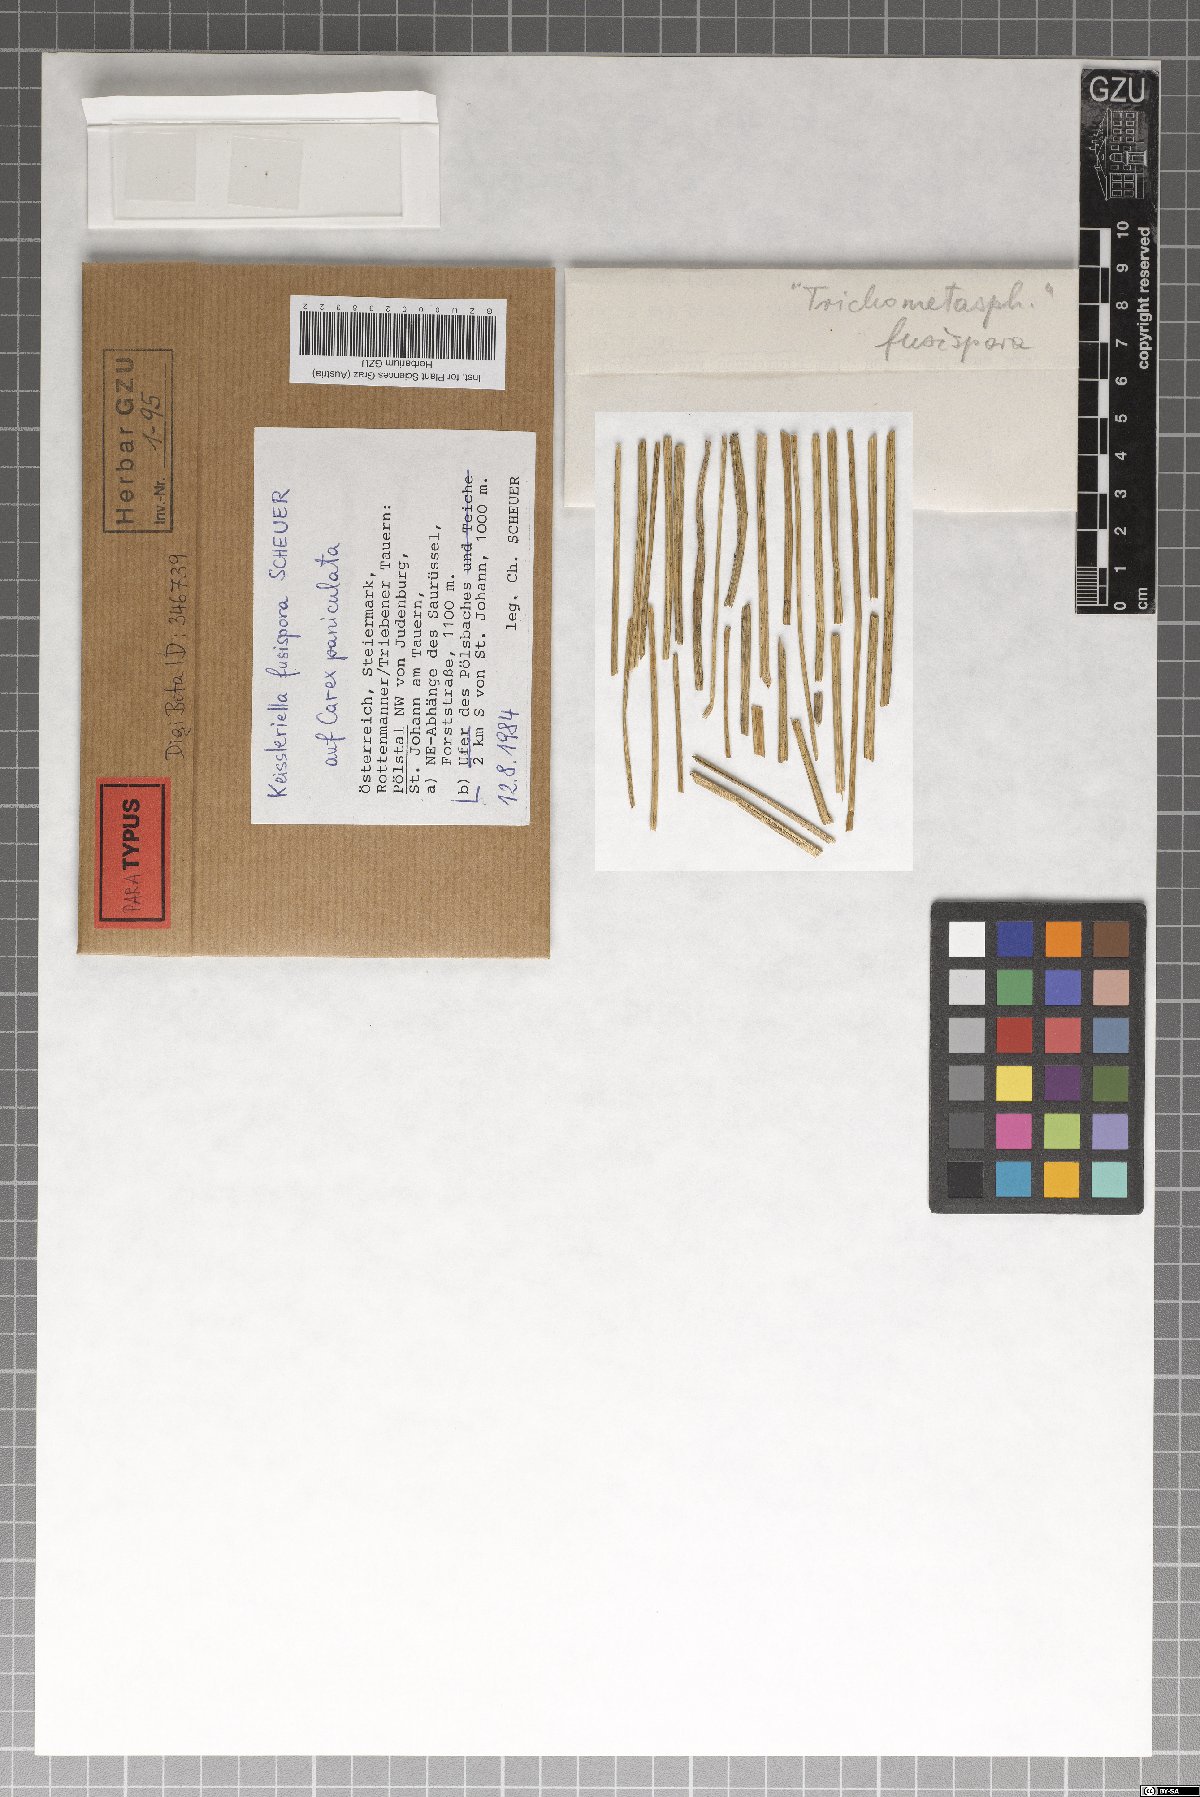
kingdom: Fungi
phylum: Ascomycota
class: Dothideomycetes
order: Pleosporales
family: Lophiostomataceae
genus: Trichometasphaeria
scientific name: Trichometasphaeria fusispora
